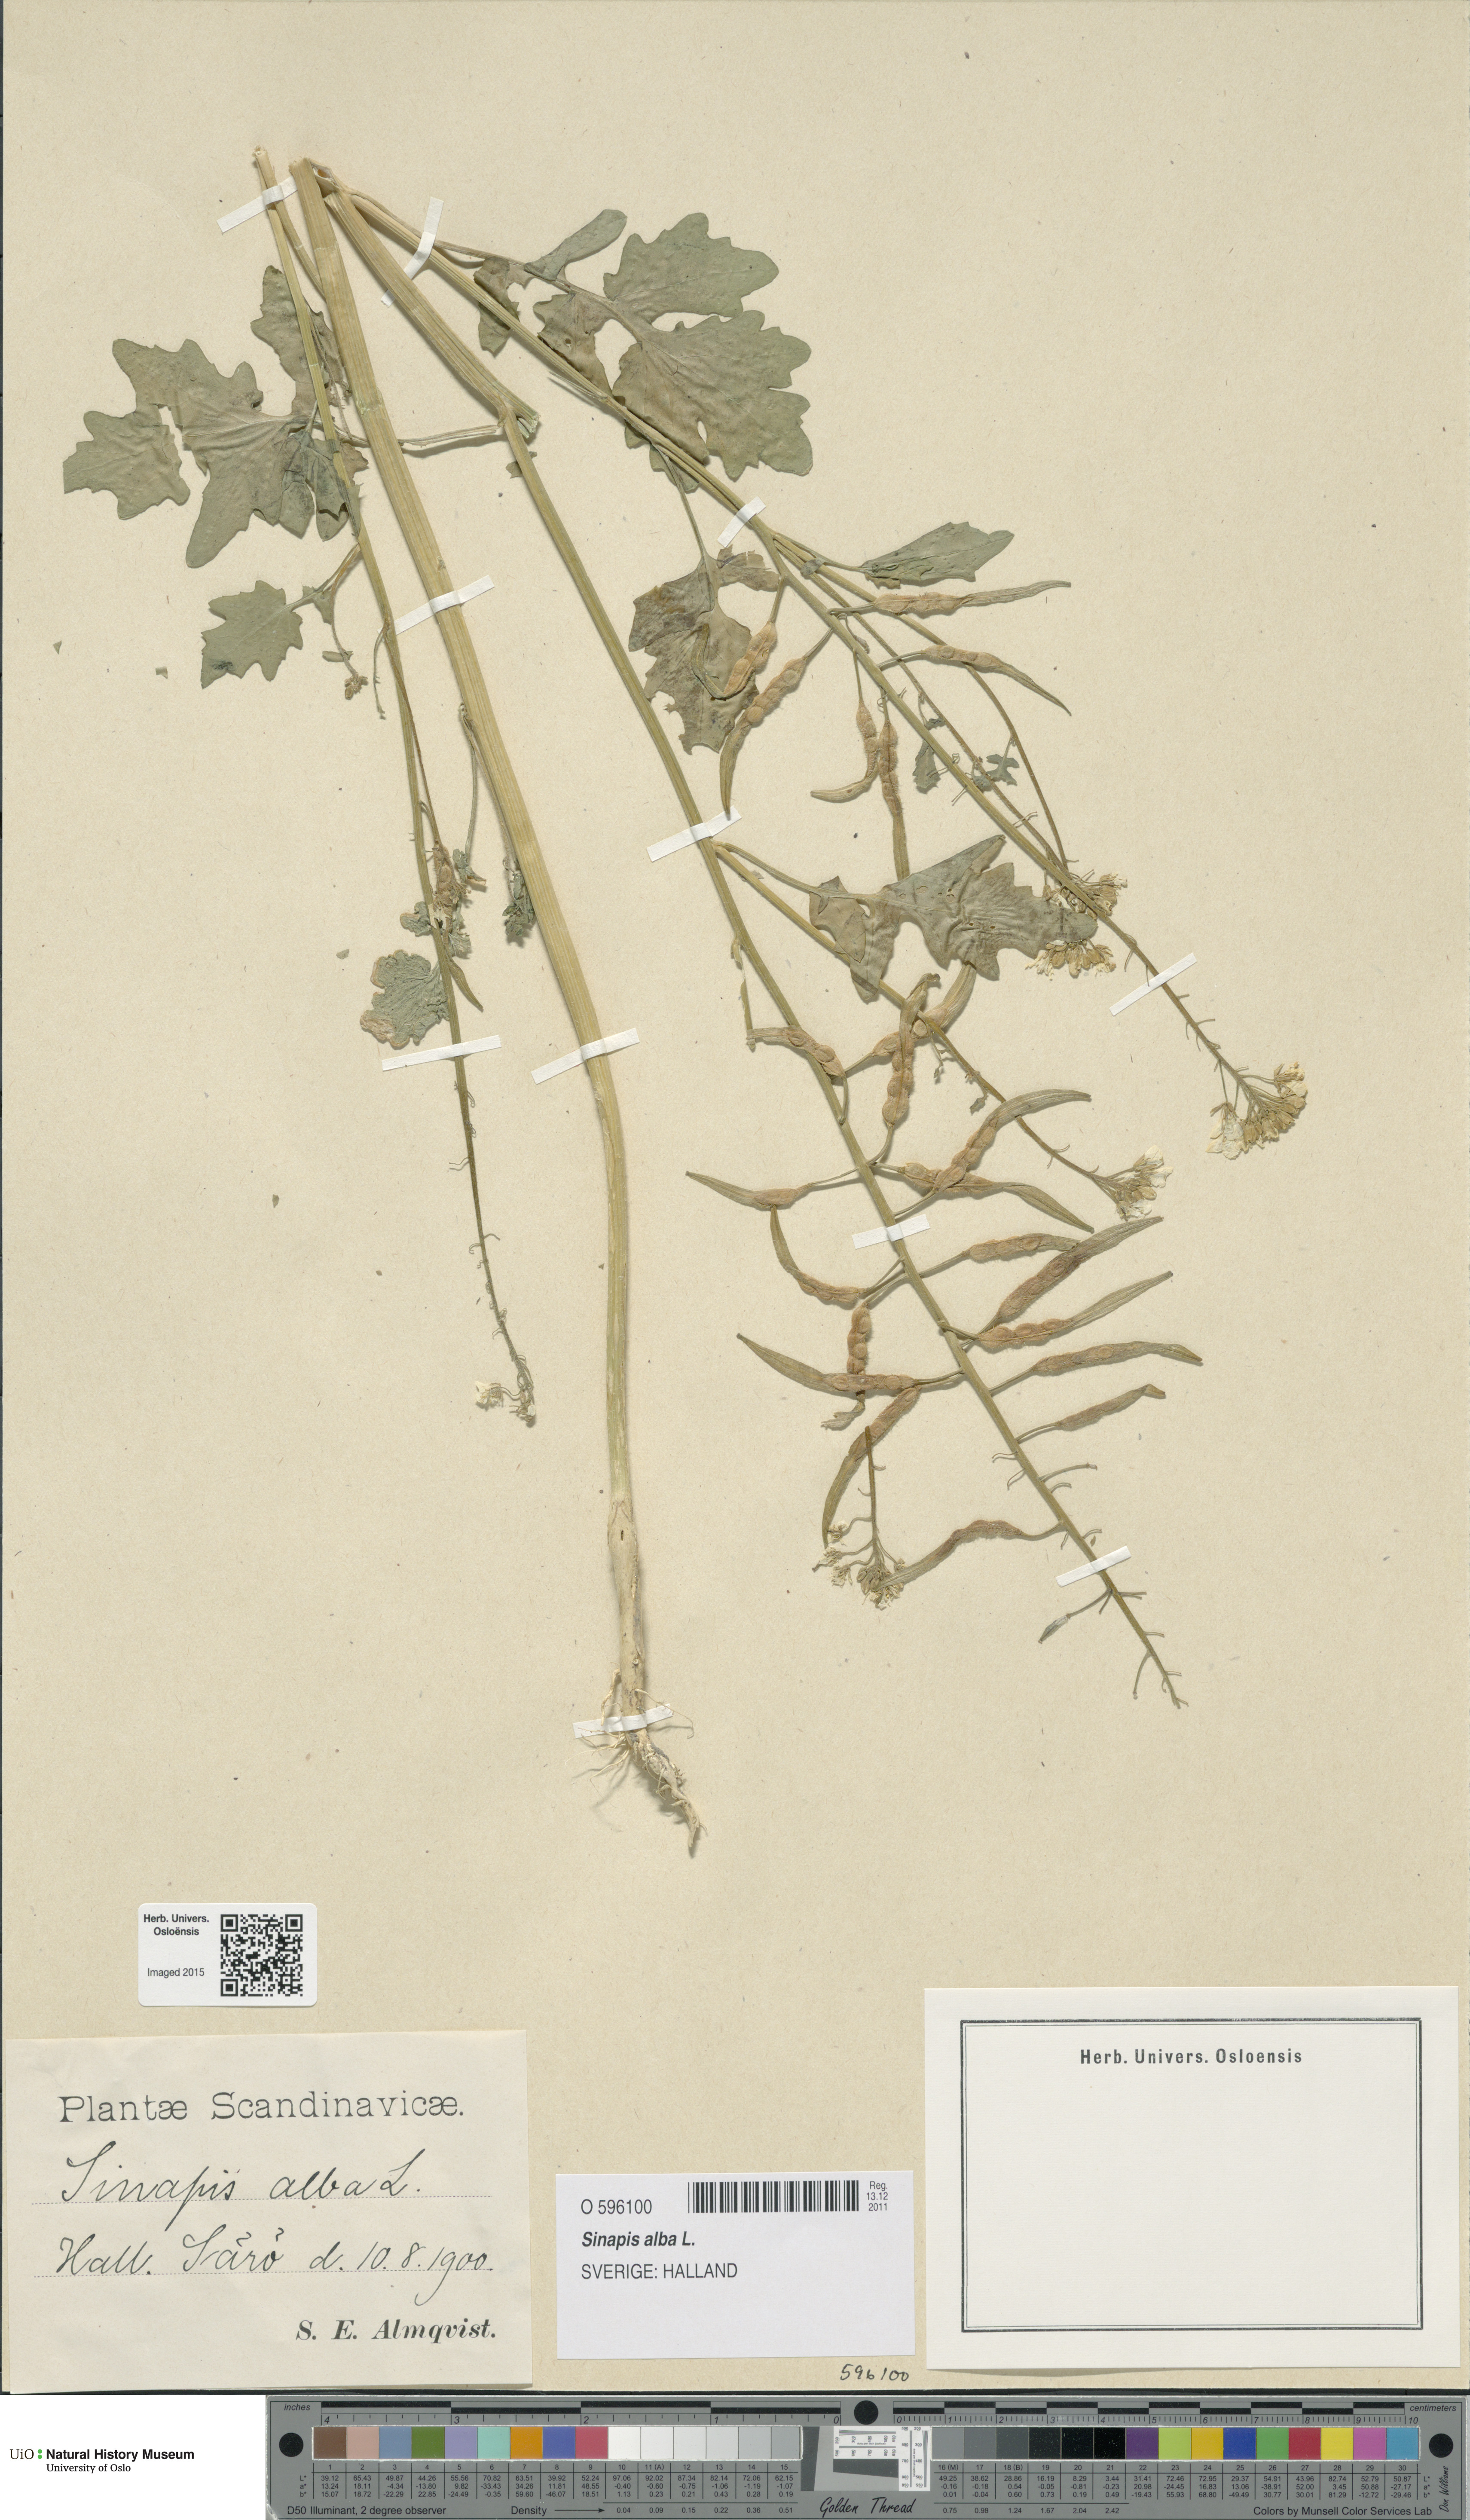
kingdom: Plantae
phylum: Tracheophyta
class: Magnoliopsida
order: Brassicales
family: Brassicaceae
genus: Sinapis
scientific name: Sinapis alba
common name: White mustard
